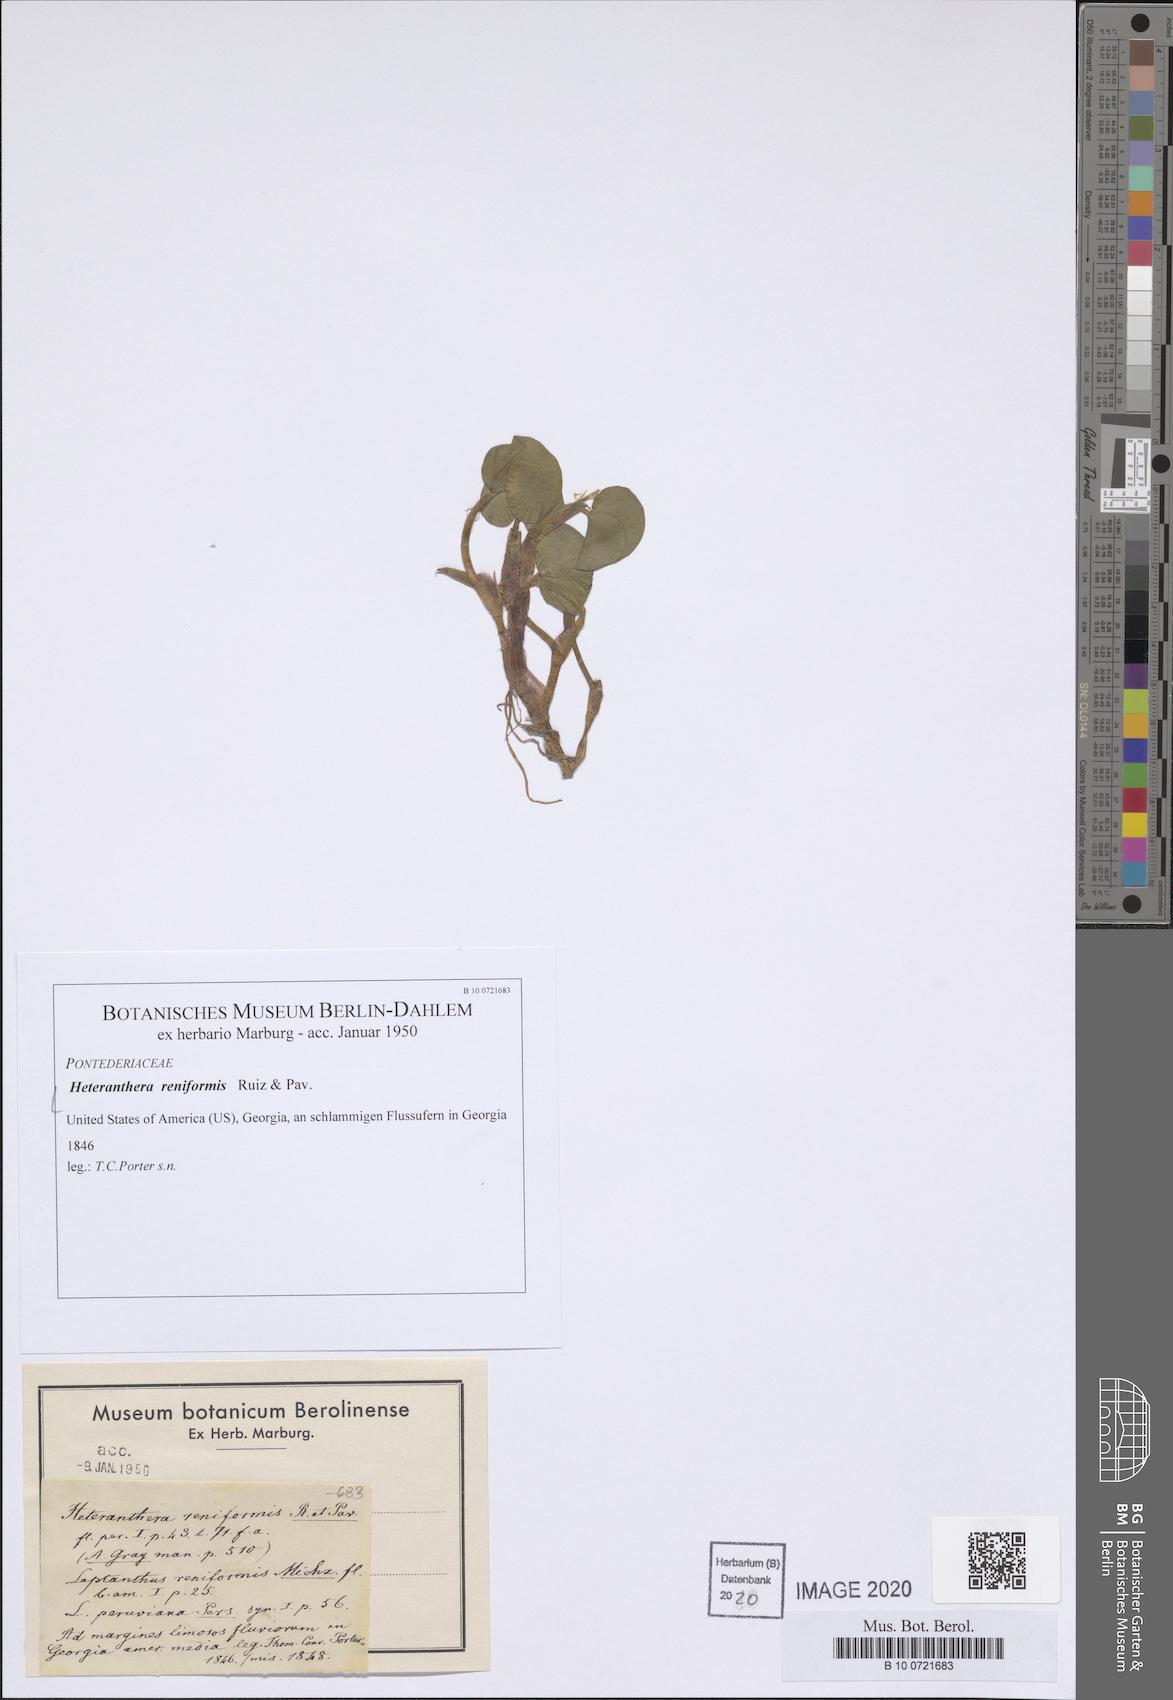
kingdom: Plantae
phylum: Tracheophyta
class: Liliopsida
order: Commelinales
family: Pontederiaceae
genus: Heteranthera
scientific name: Heteranthera reniformis
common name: Kidneyleaf mudplantain
